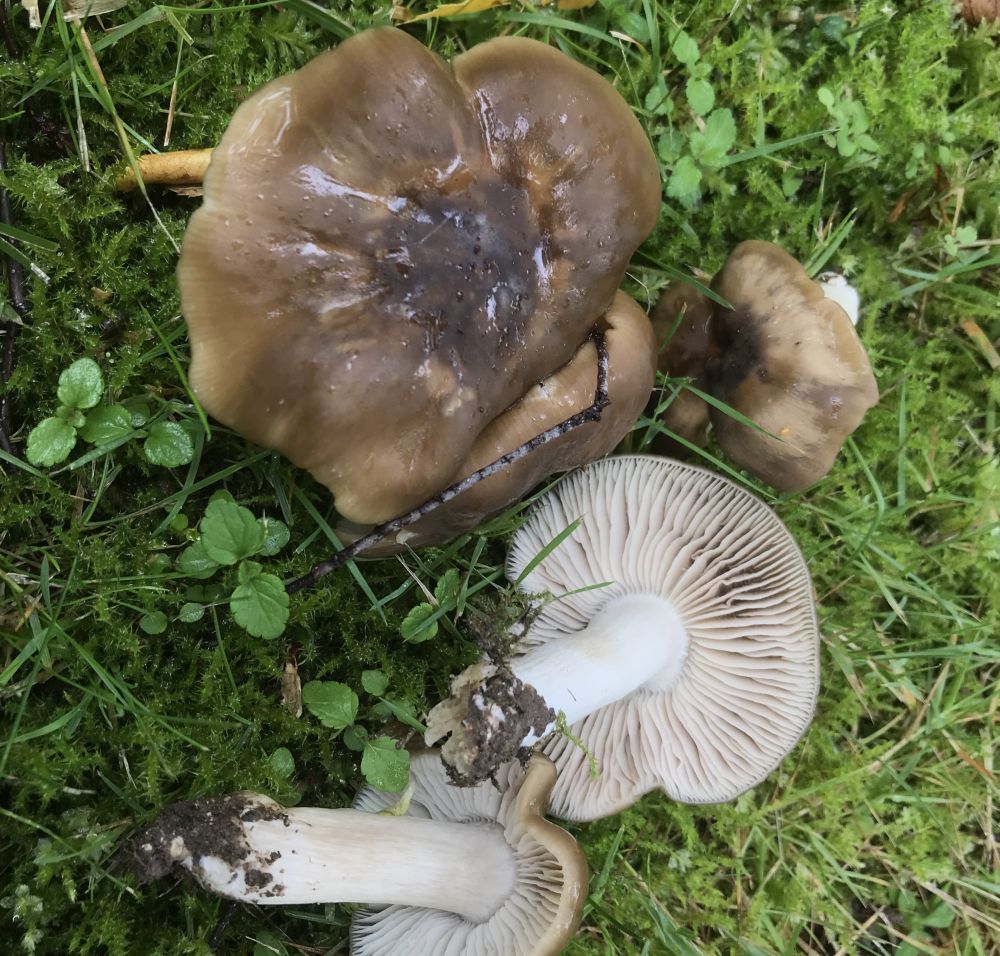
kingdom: Fungi
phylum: Basidiomycota
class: Agaricomycetes
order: Agaricales
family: Entolomataceae
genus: Entoloma
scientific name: Entoloma lividoalbum
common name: lysstokket rødblad
